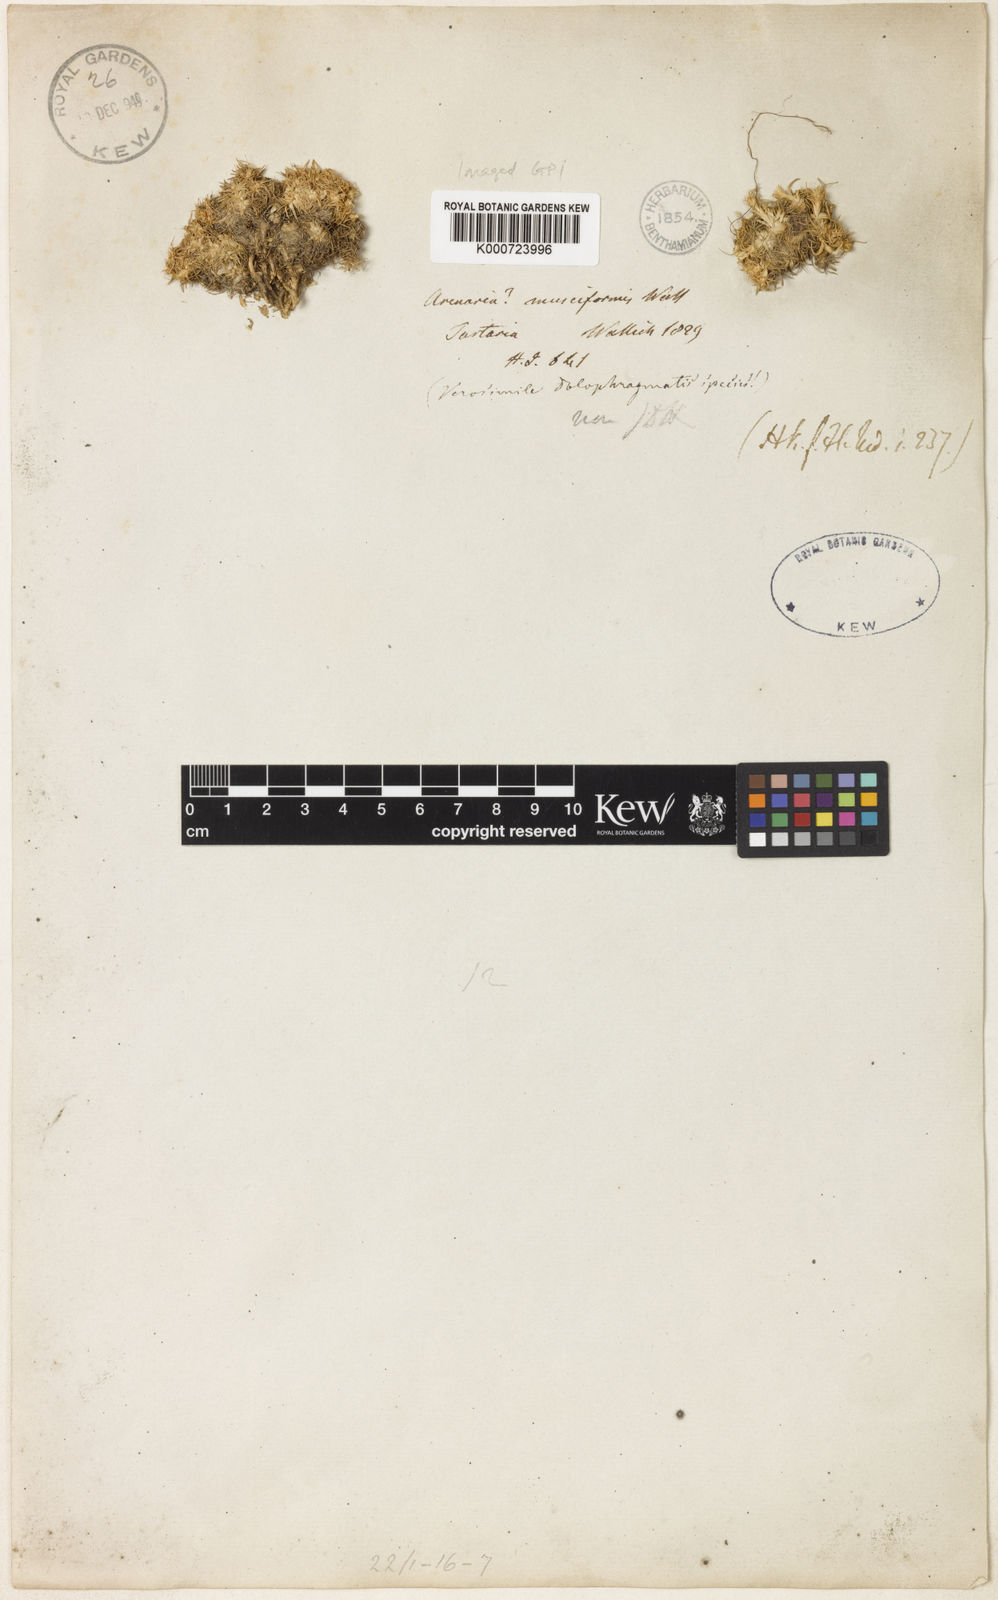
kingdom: Plantae
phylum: Tracheophyta
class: Magnoliopsida
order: Caryophyllales
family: Caryophyllaceae
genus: Arenaria
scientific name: Arenaria
